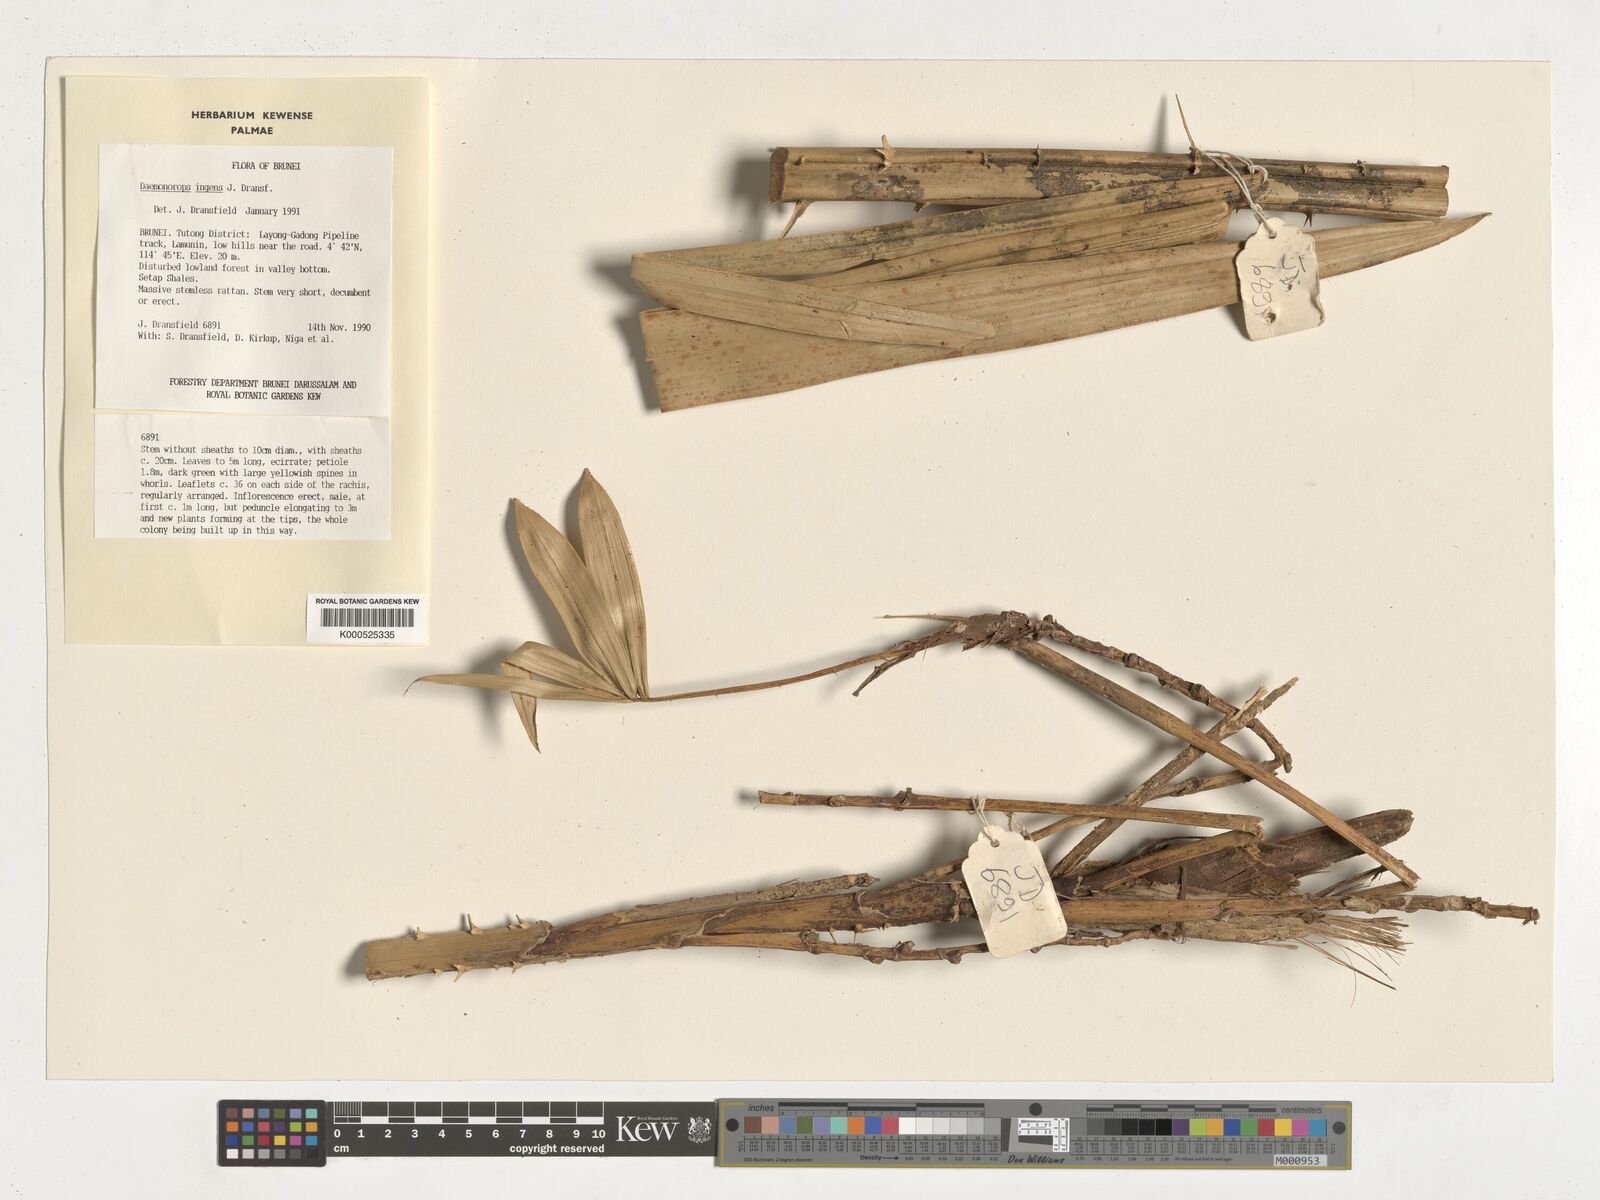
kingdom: Plantae
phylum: Tracheophyta
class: Liliopsida
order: Arecales
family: Arecaceae
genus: Calamus
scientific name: Calamus ingens
